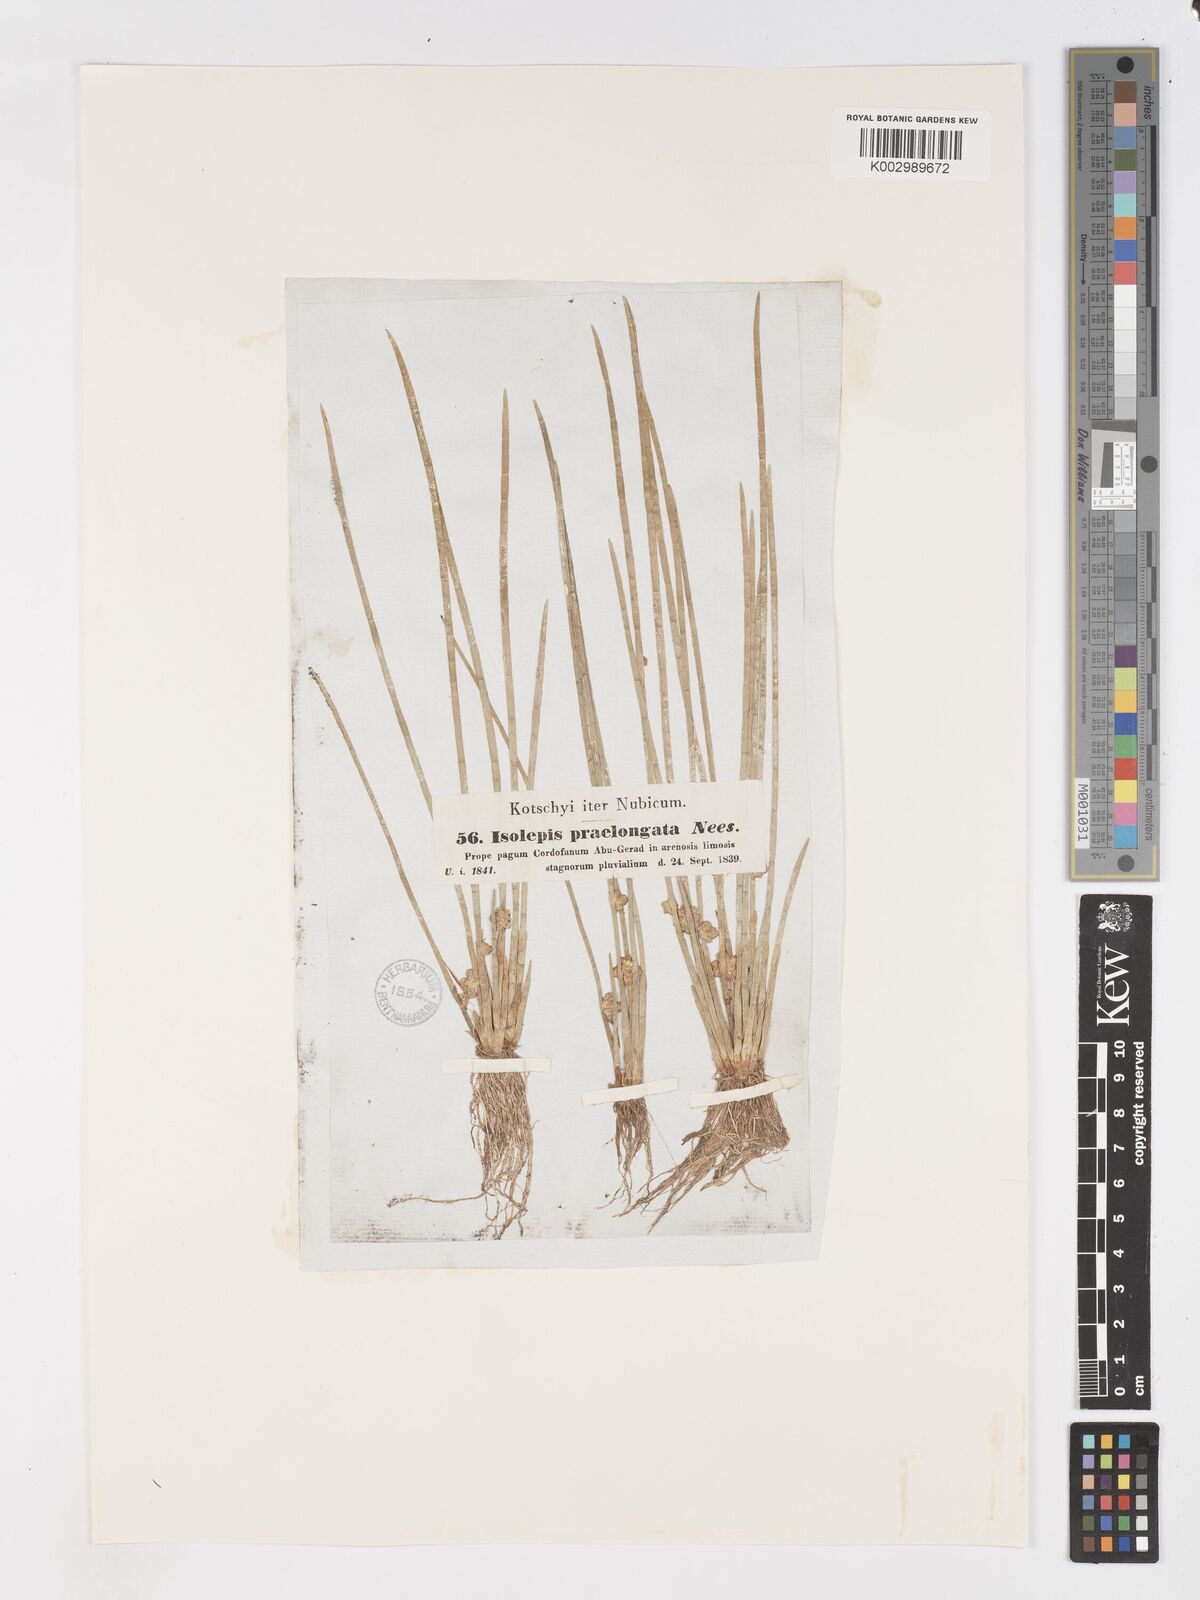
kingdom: Plantae
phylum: Tracheophyta
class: Liliopsida
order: Poales
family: Cyperaceae
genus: Schoenoplectiella
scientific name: Schoenoplectiella senegalensis
